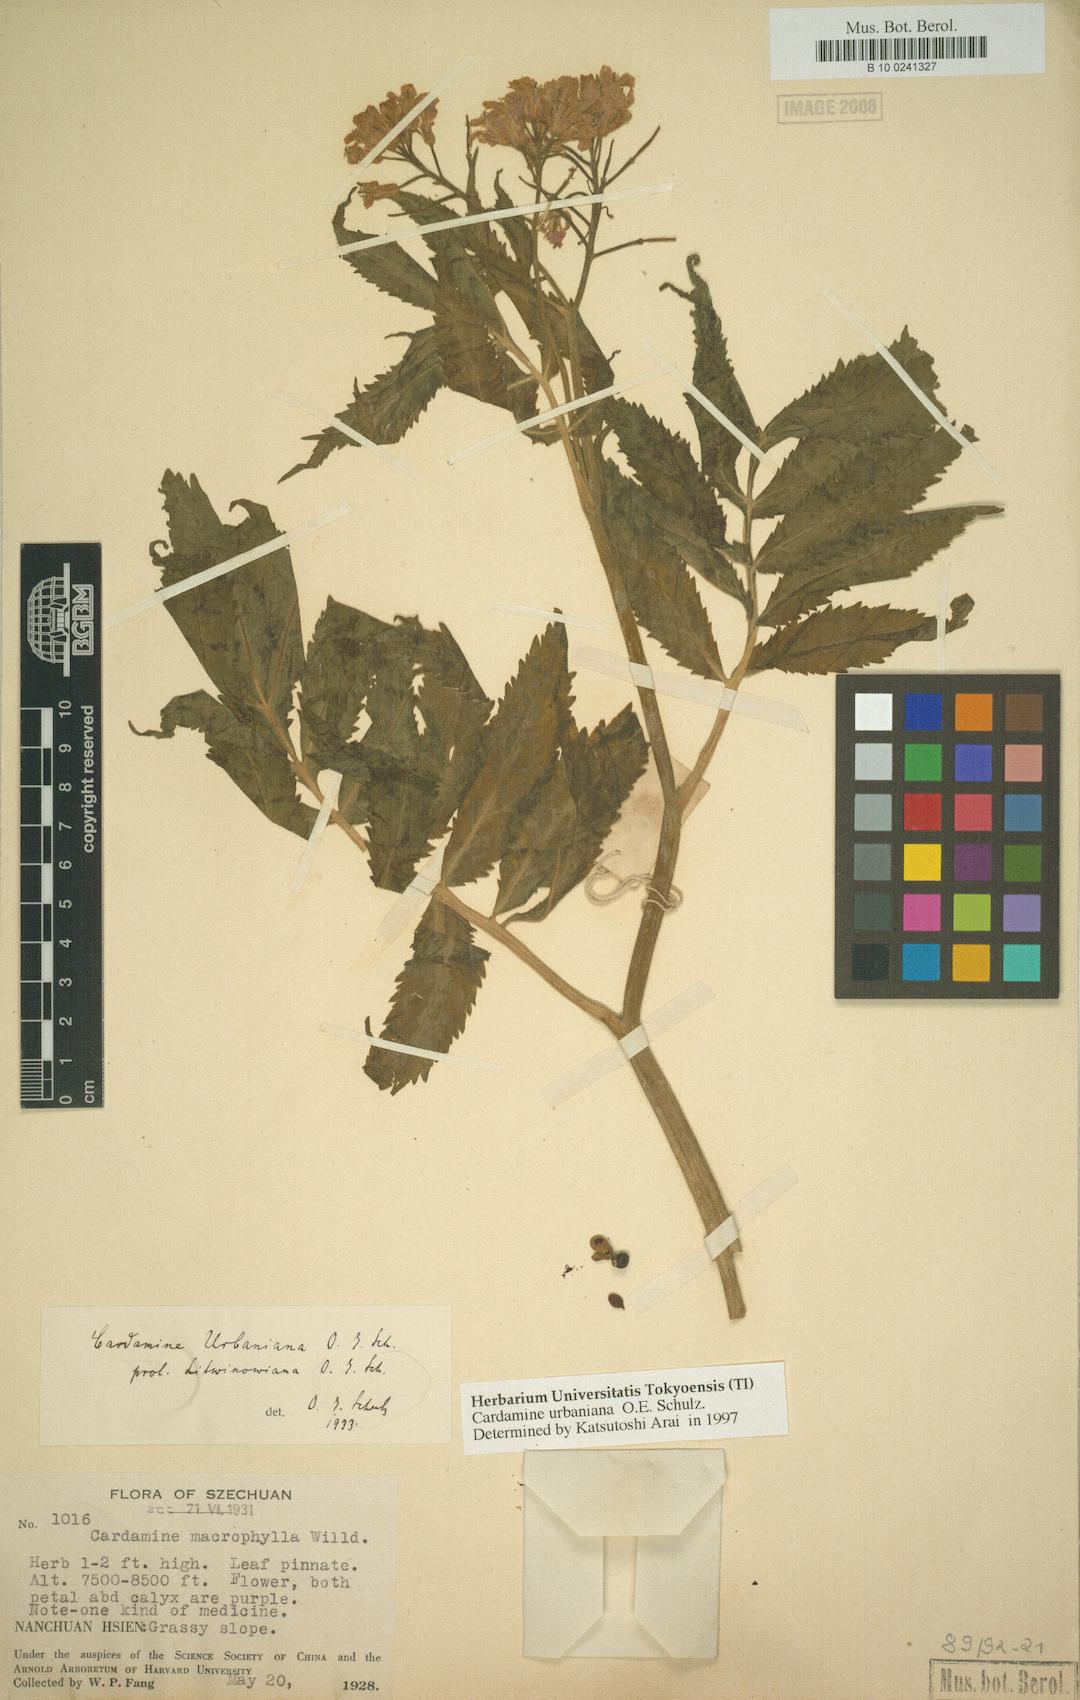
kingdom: Plantae
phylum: Tracheophyta
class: Magnoliopsida
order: Brassicales
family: Brassicaceae
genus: Cardamine
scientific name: Cardamine macrophylla
